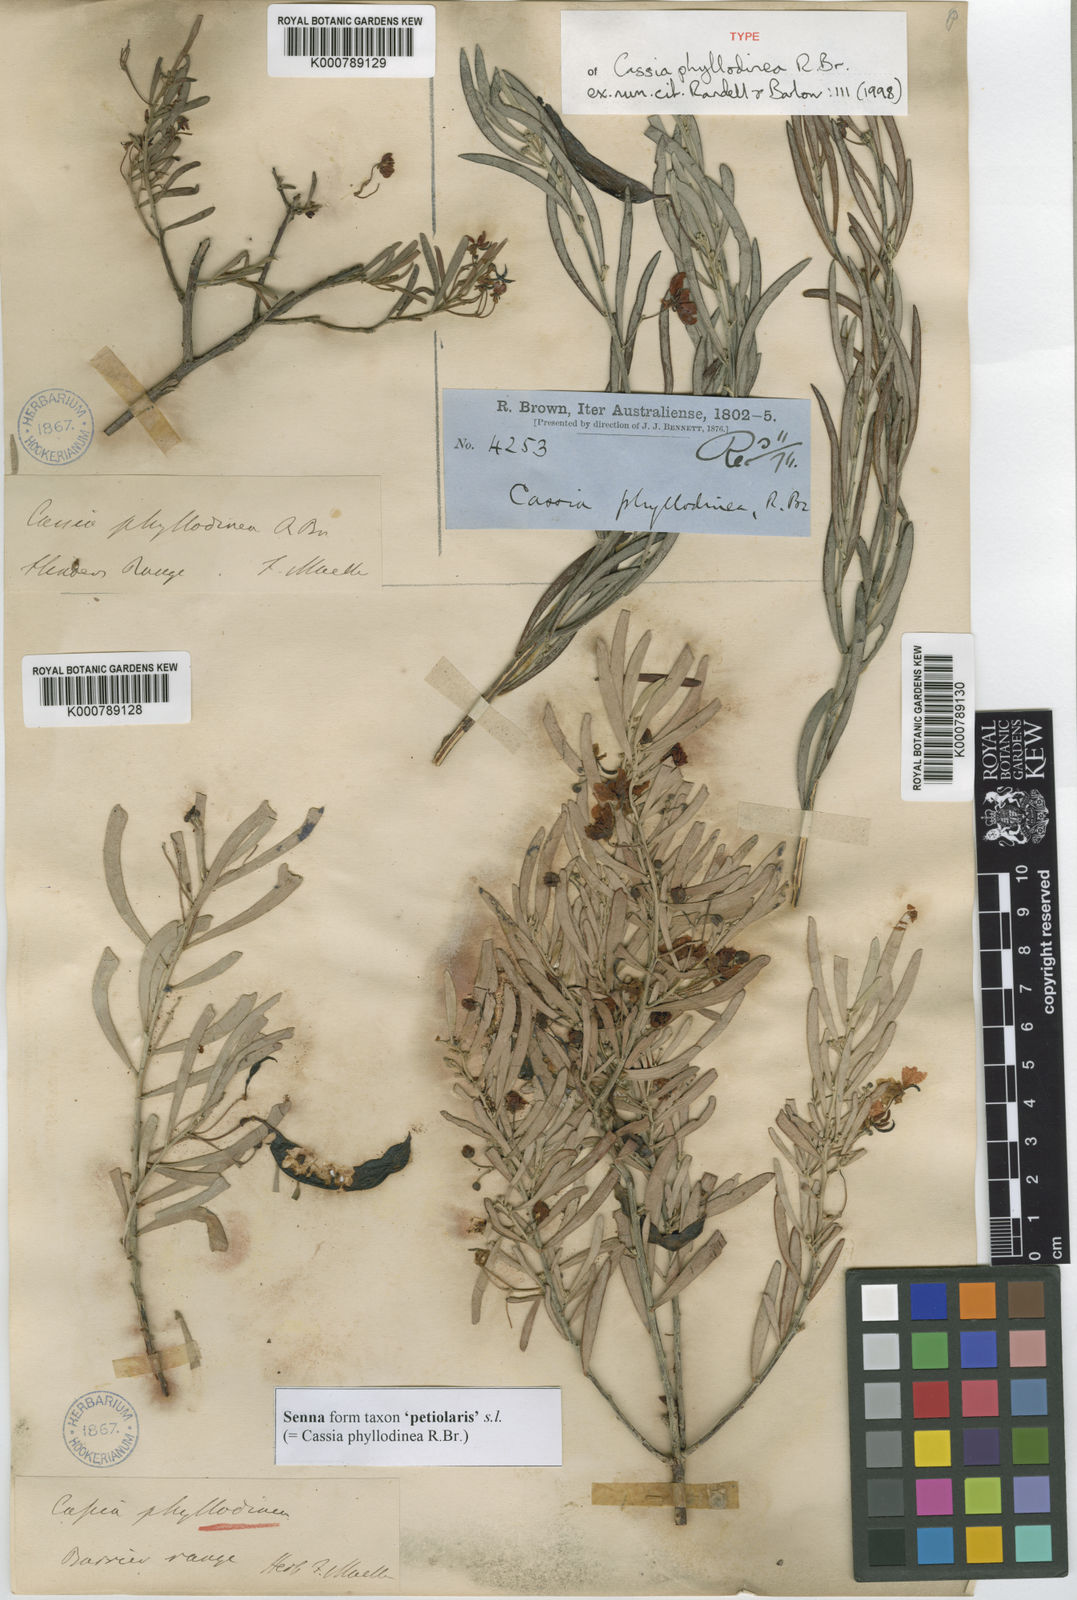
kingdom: Plantae
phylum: Tracheophyta
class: Magnoliopsida
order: Fabales
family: Fabaceae
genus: Senna
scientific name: Senna
